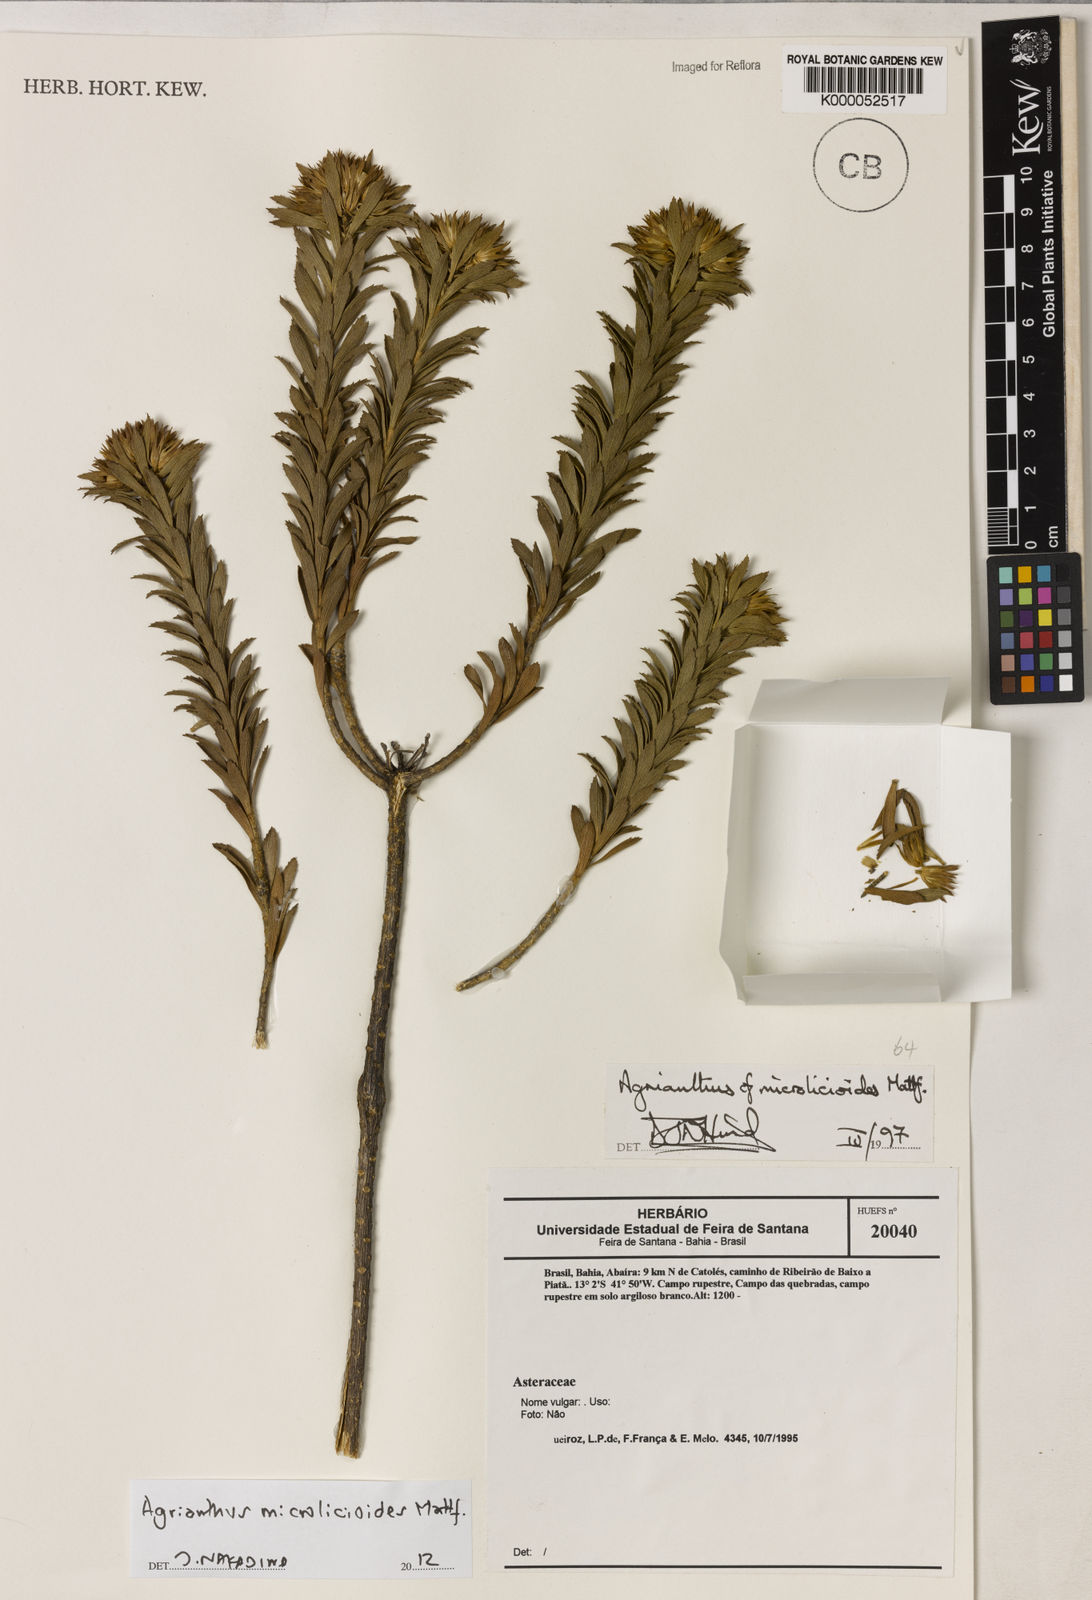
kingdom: Plantae
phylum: Tracheophyta
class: Magnoliopsida
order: Asterales
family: Asteraceae
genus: Agrianthus
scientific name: Agrianthus microlicioides
